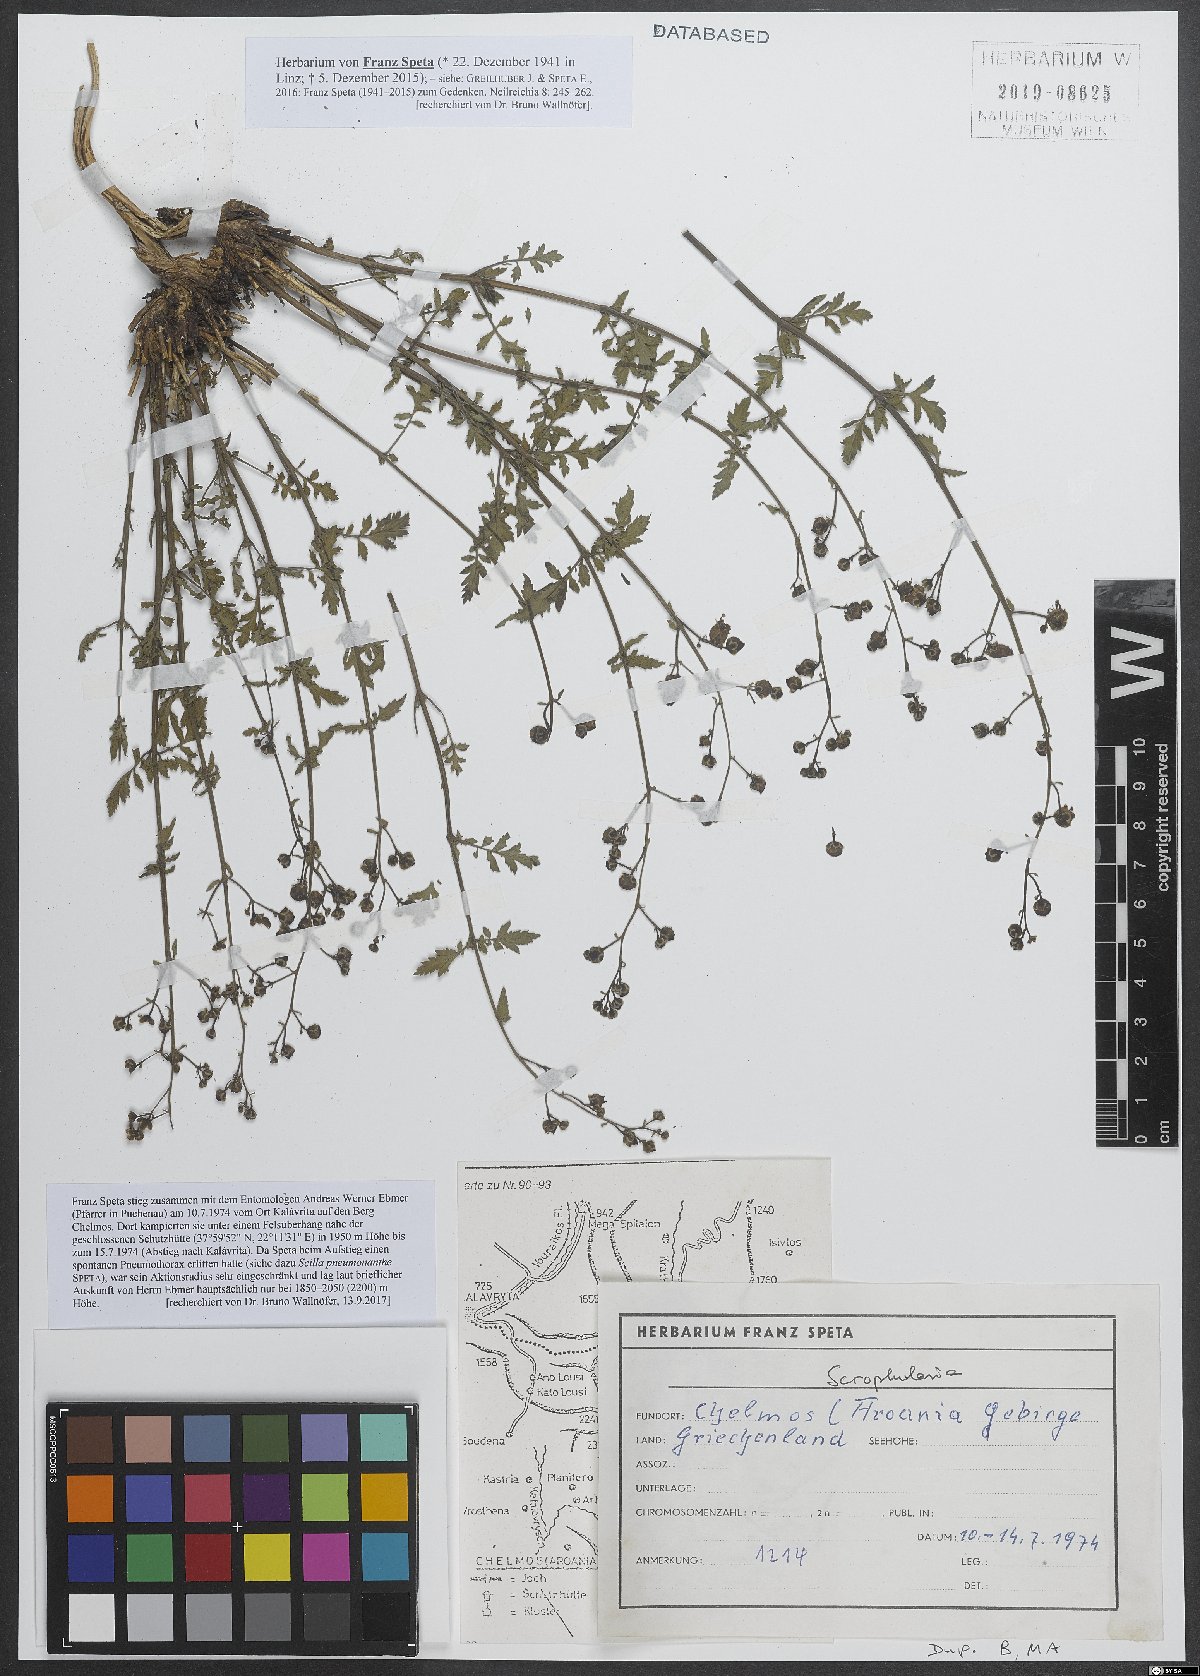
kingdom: Plantae
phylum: Tracheophyta
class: Magnoliopsida
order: Lamiales
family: Scrophulariaceae
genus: Scrophularia
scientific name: Scrophularia
